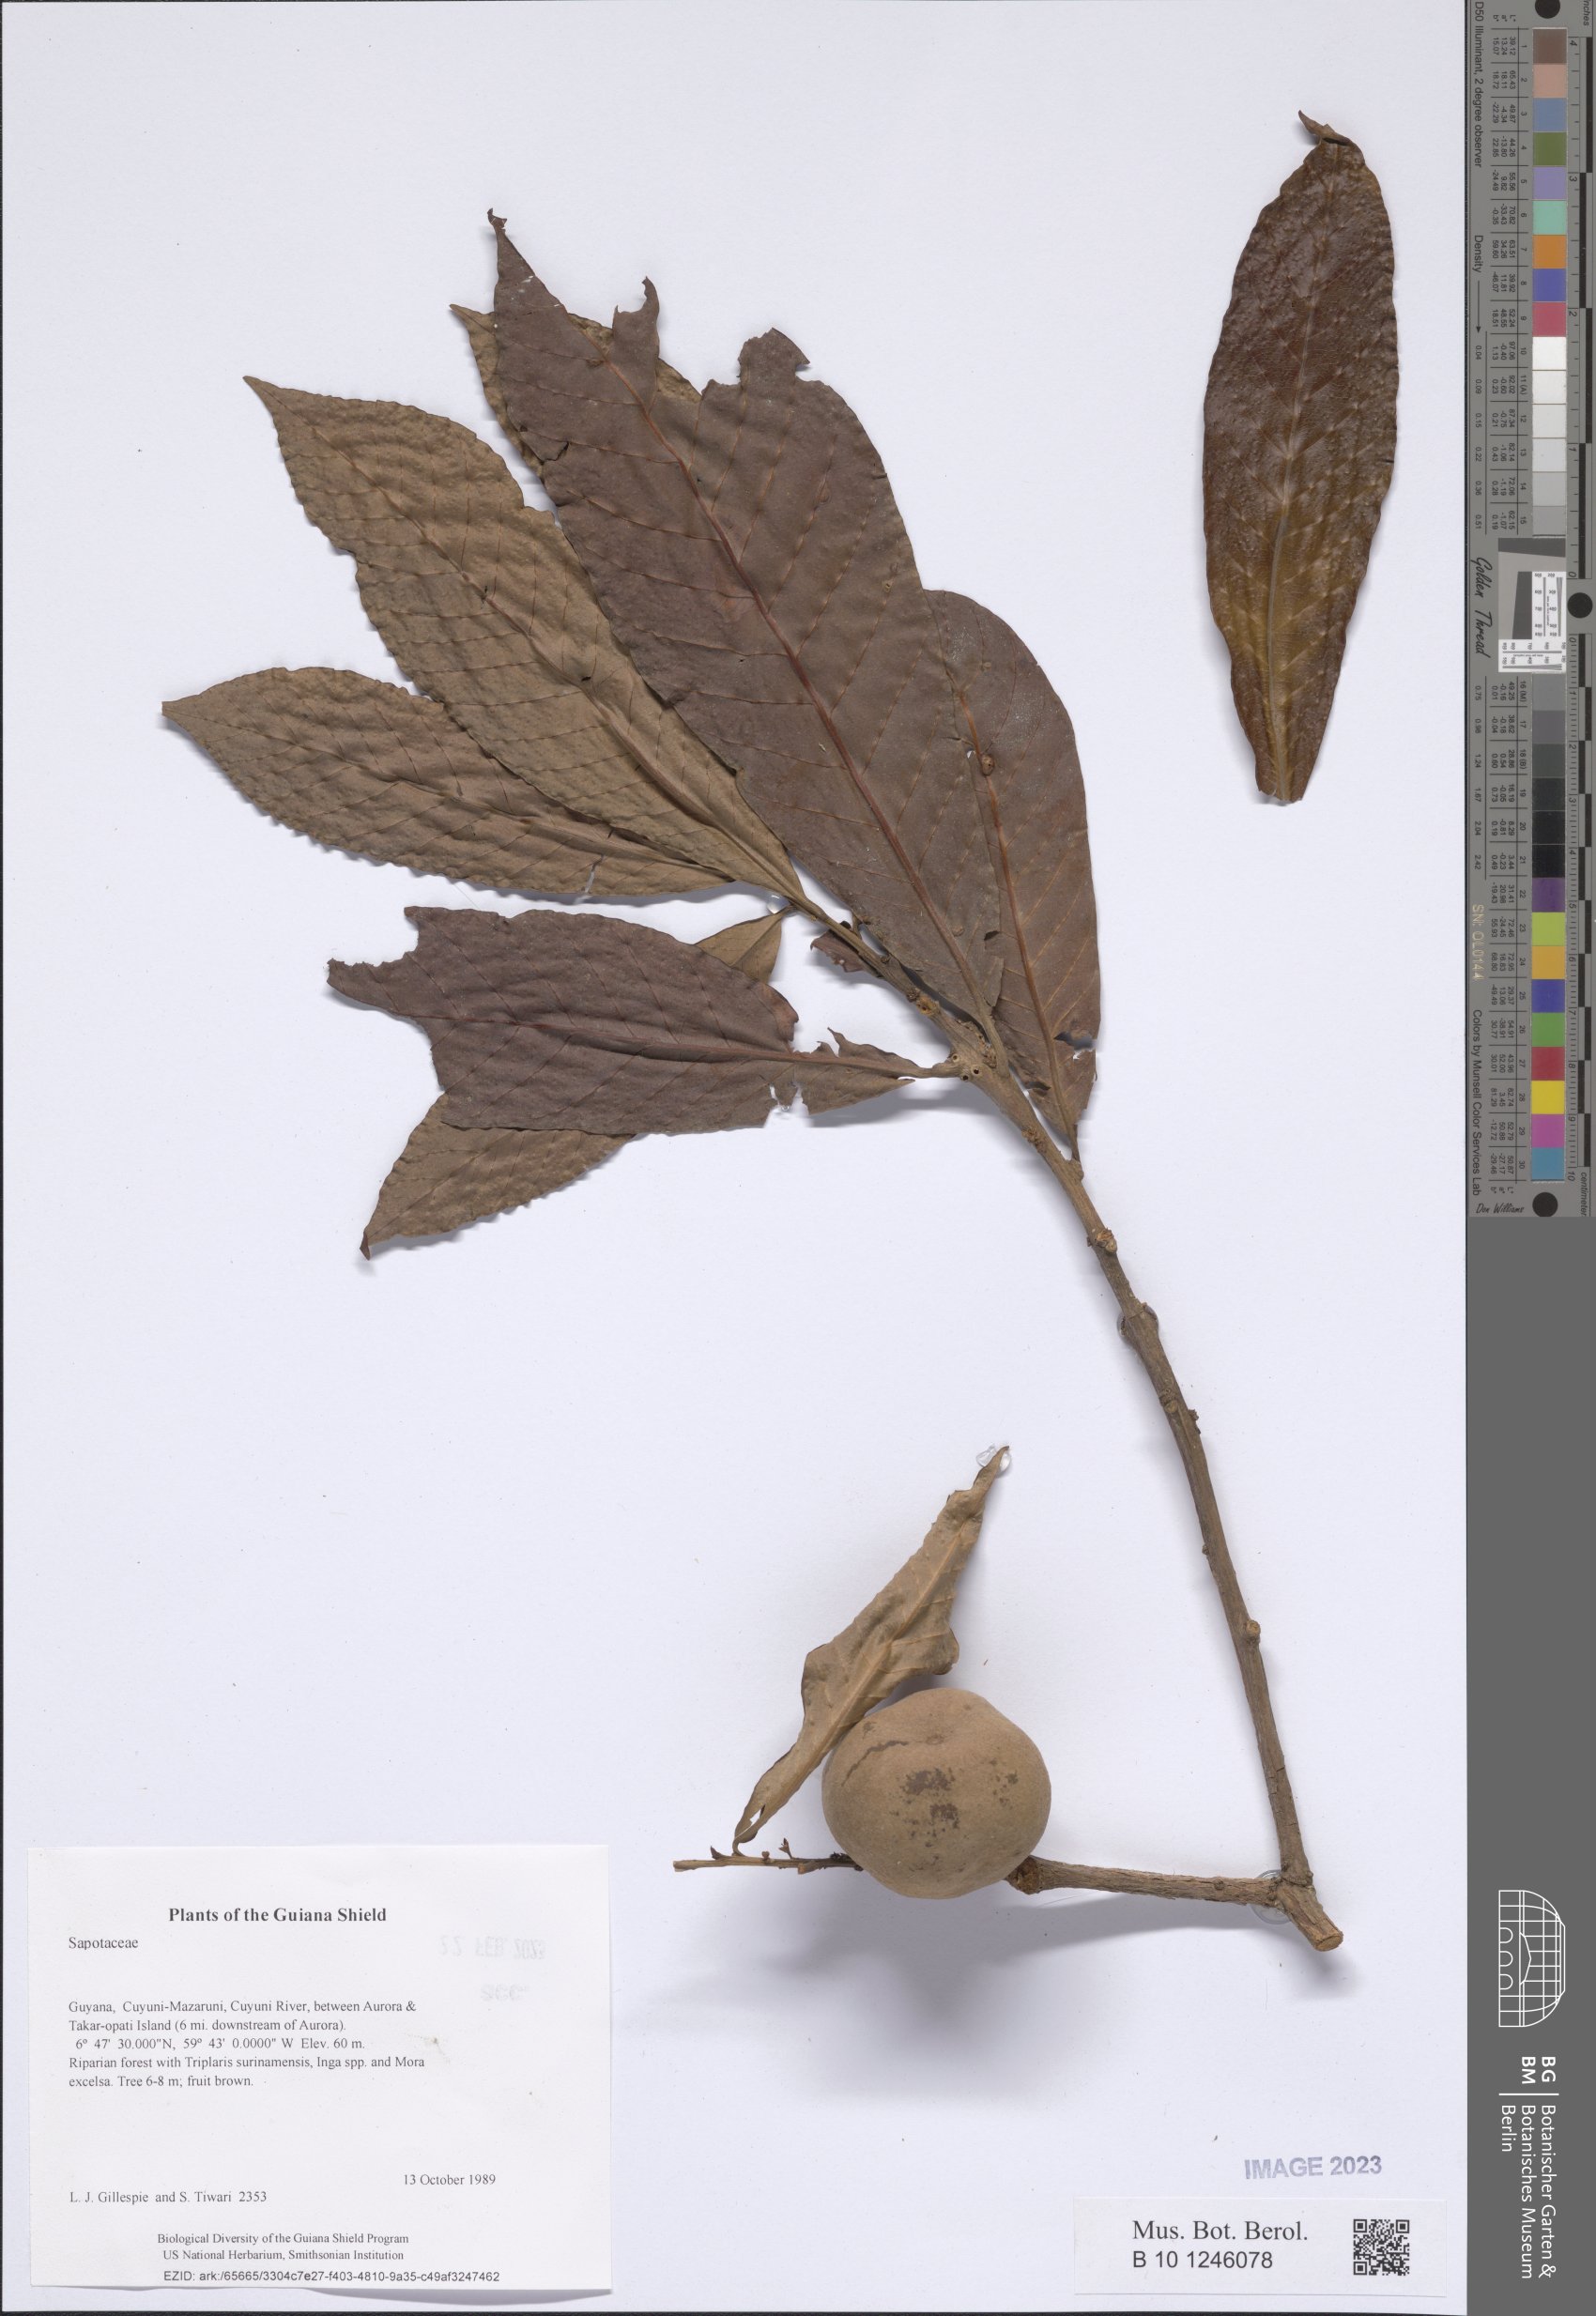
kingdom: Plantae
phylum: Tracheophyta
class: Magnoliopsida
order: Ericales
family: Sapotaceae
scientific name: Sapotaceae
